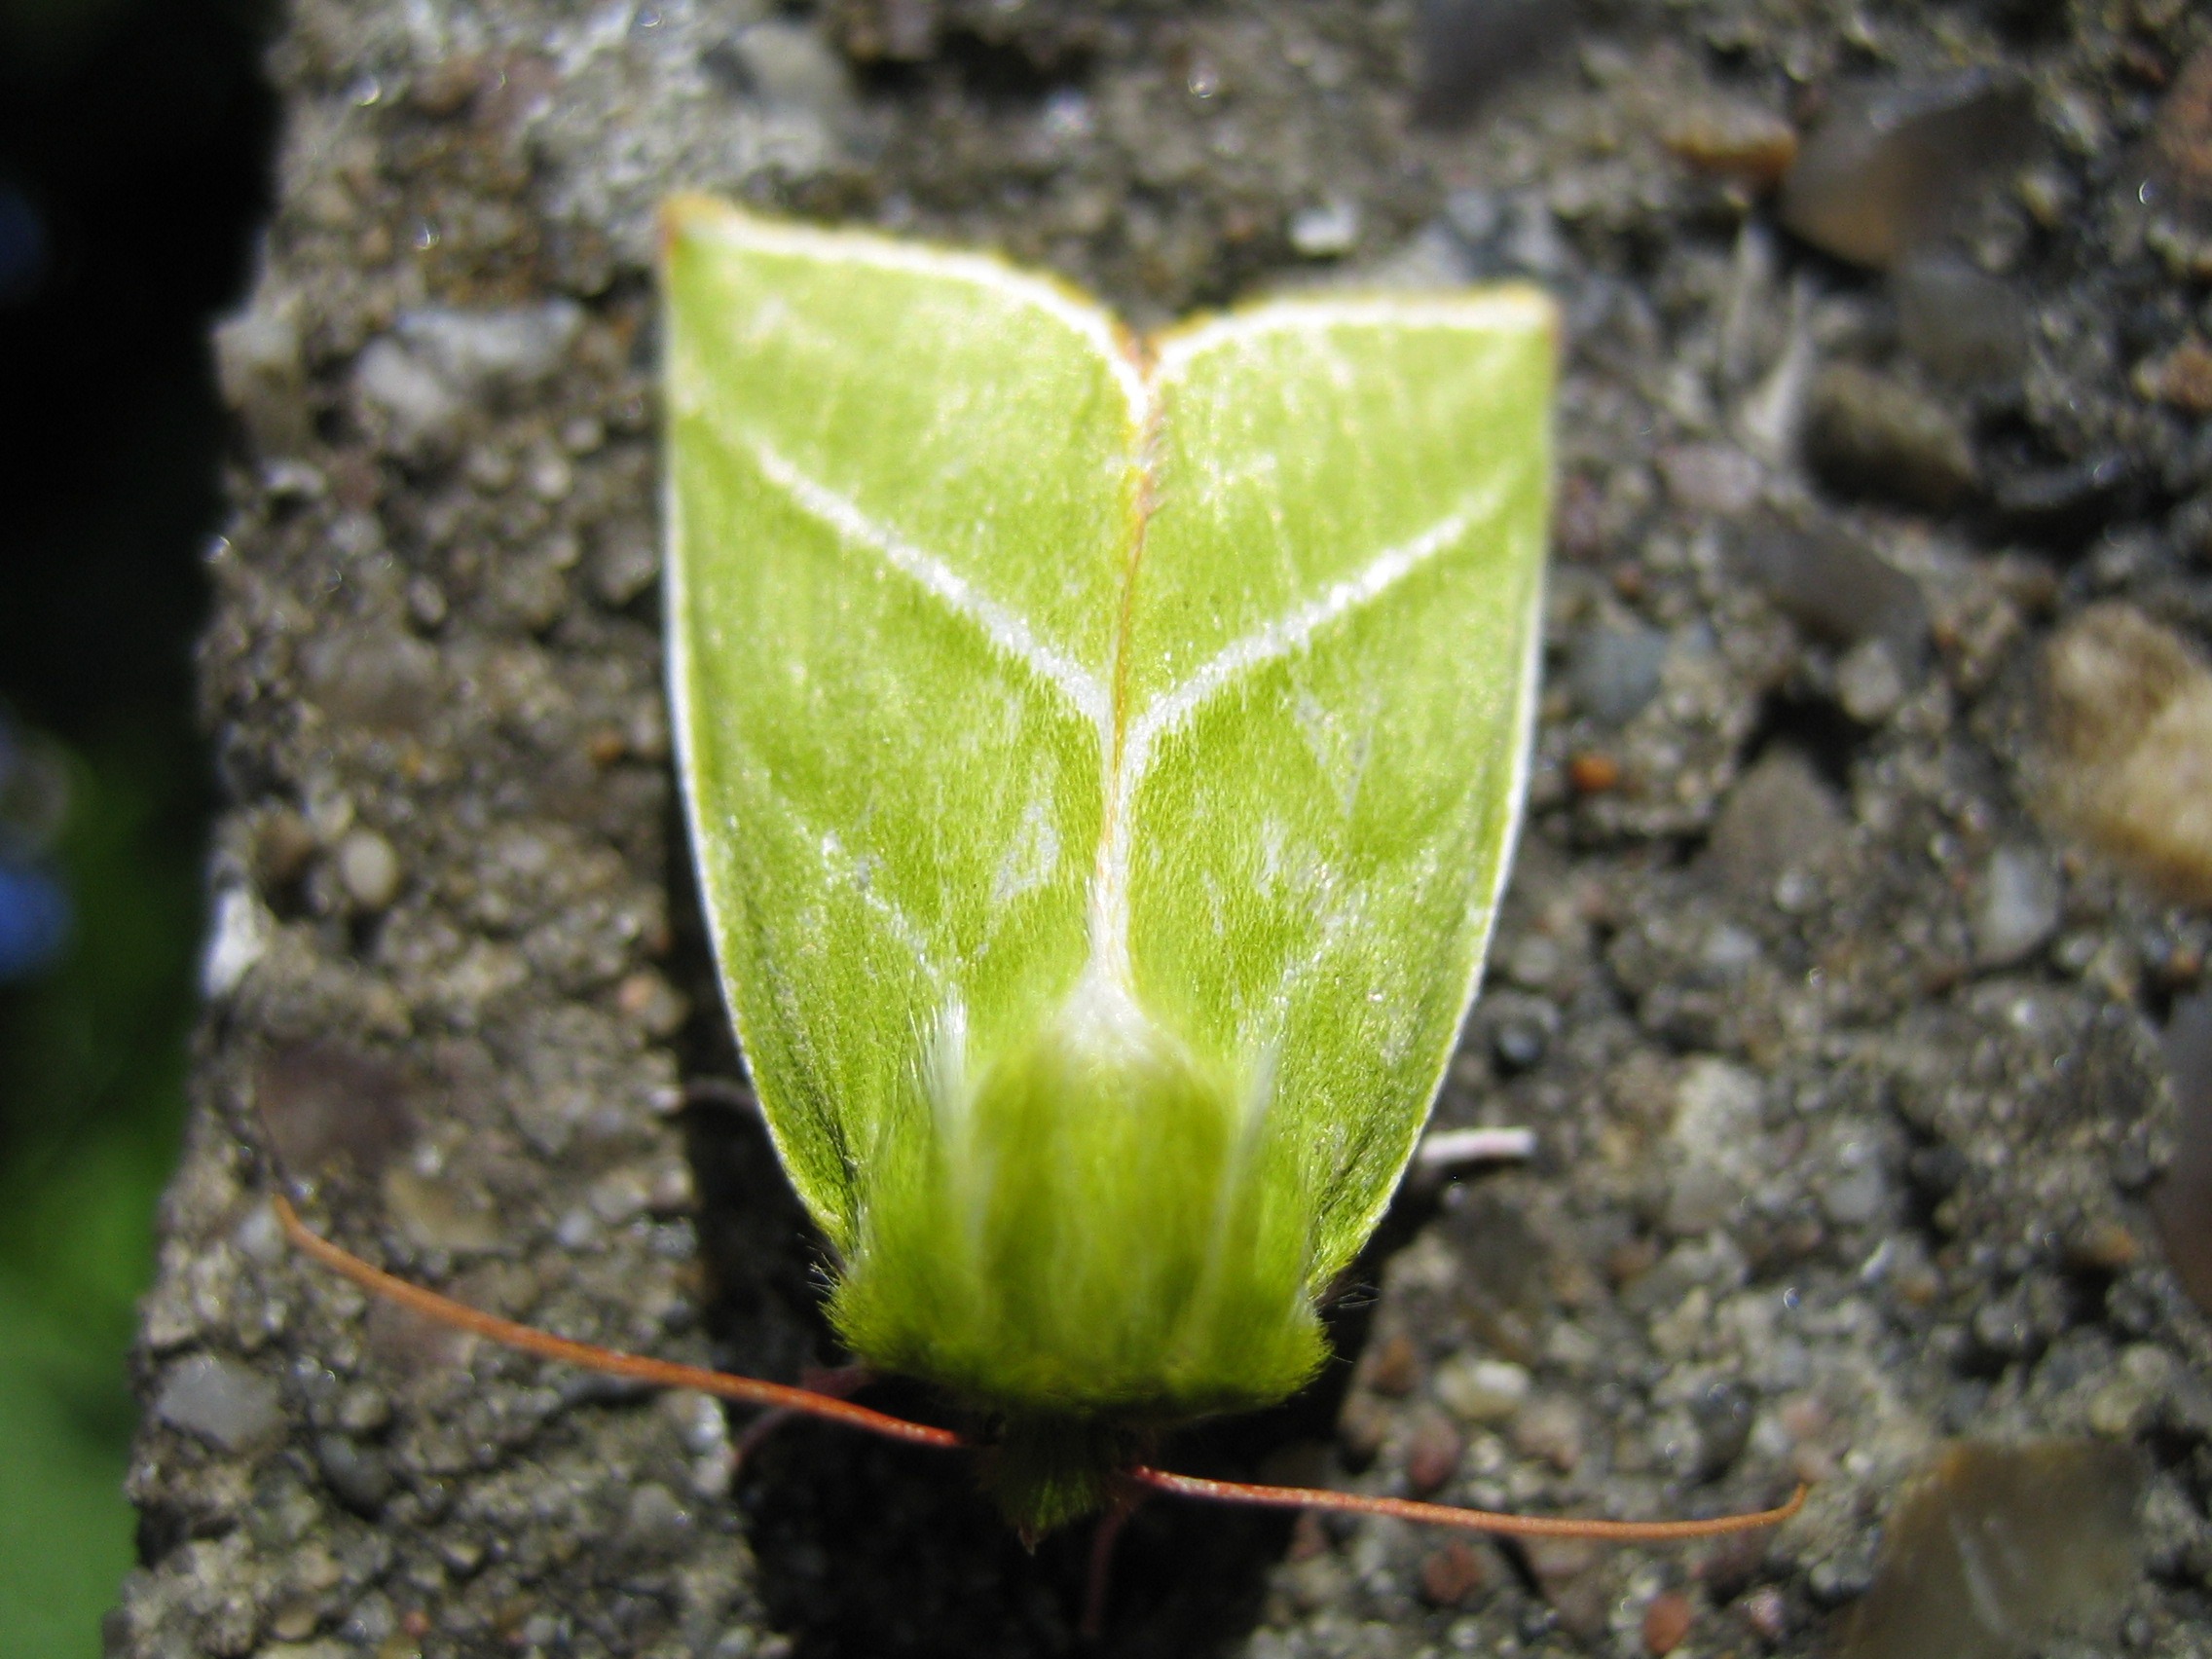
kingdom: Animalia
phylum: Arthropoda
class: Insecta
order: Lepidoptera
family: Nolidae
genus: Pseudoips
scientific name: Pseudoips prasinana
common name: Grøn bøgeugle
